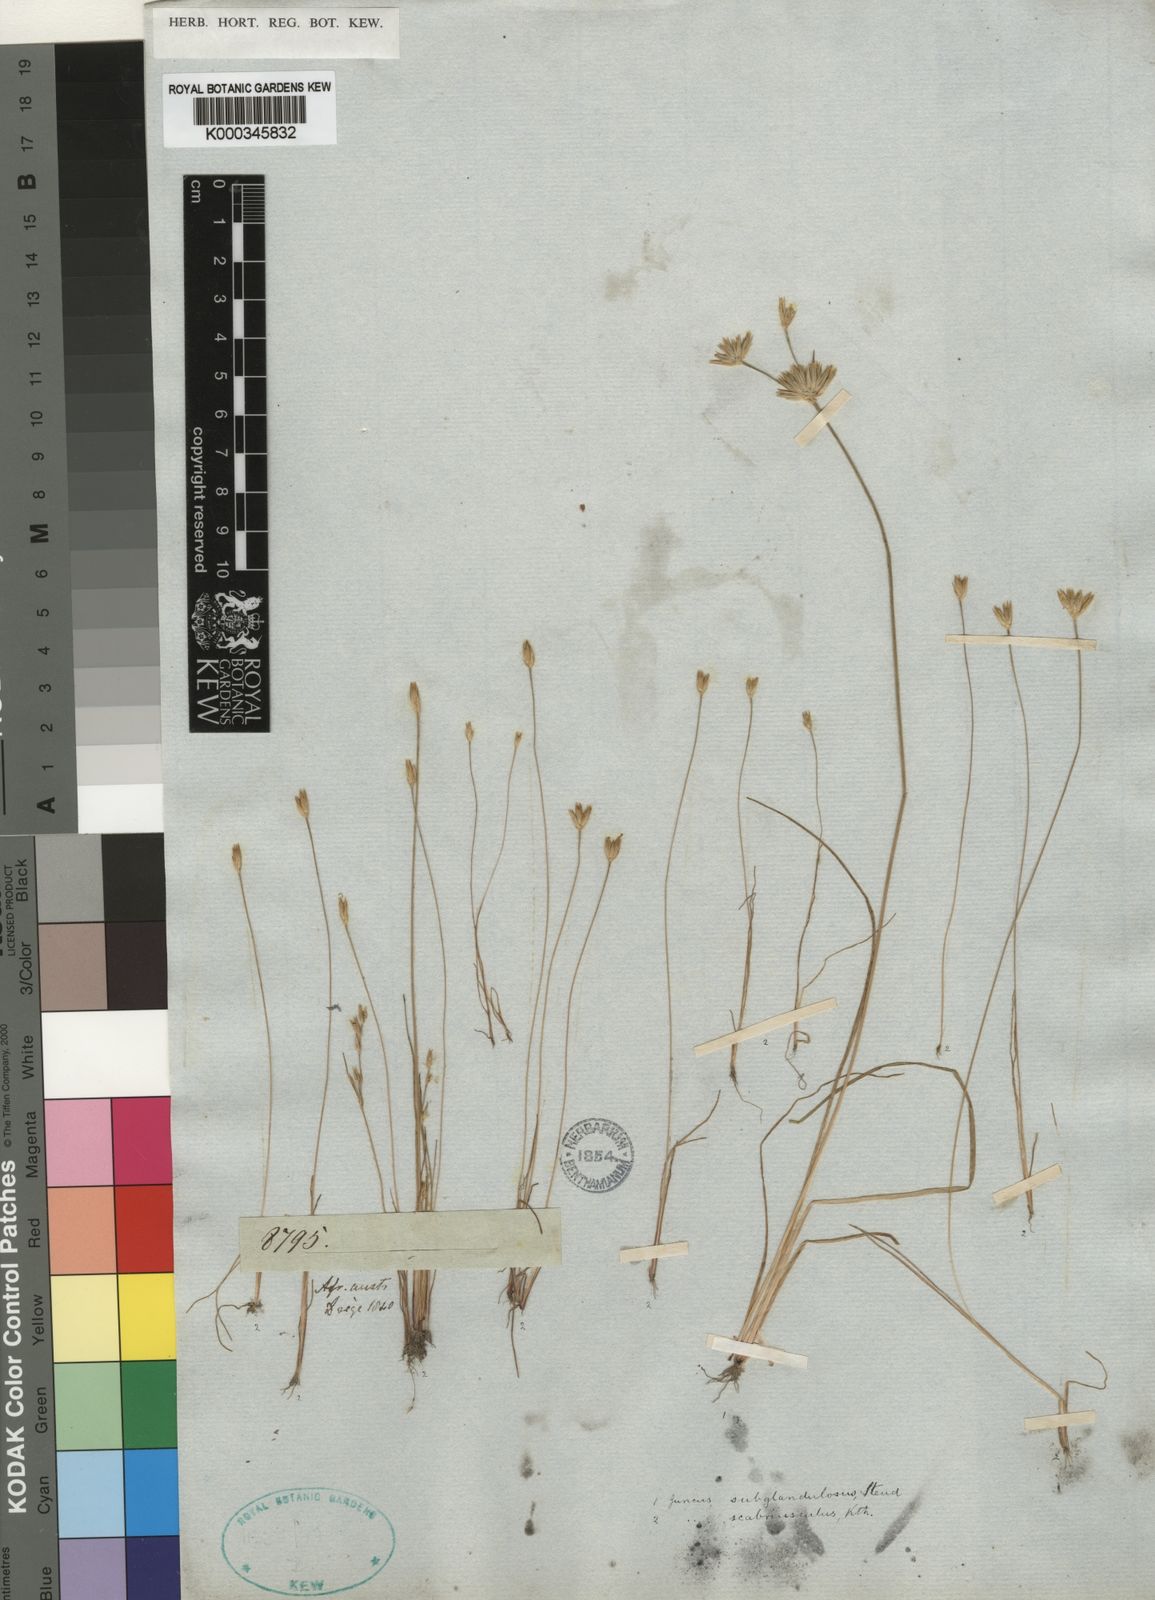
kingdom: Plantae
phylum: Tracheophyta
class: Liliopsida
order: Poales
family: Juncaceae
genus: Juncus
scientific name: Juncus scabriusculus
